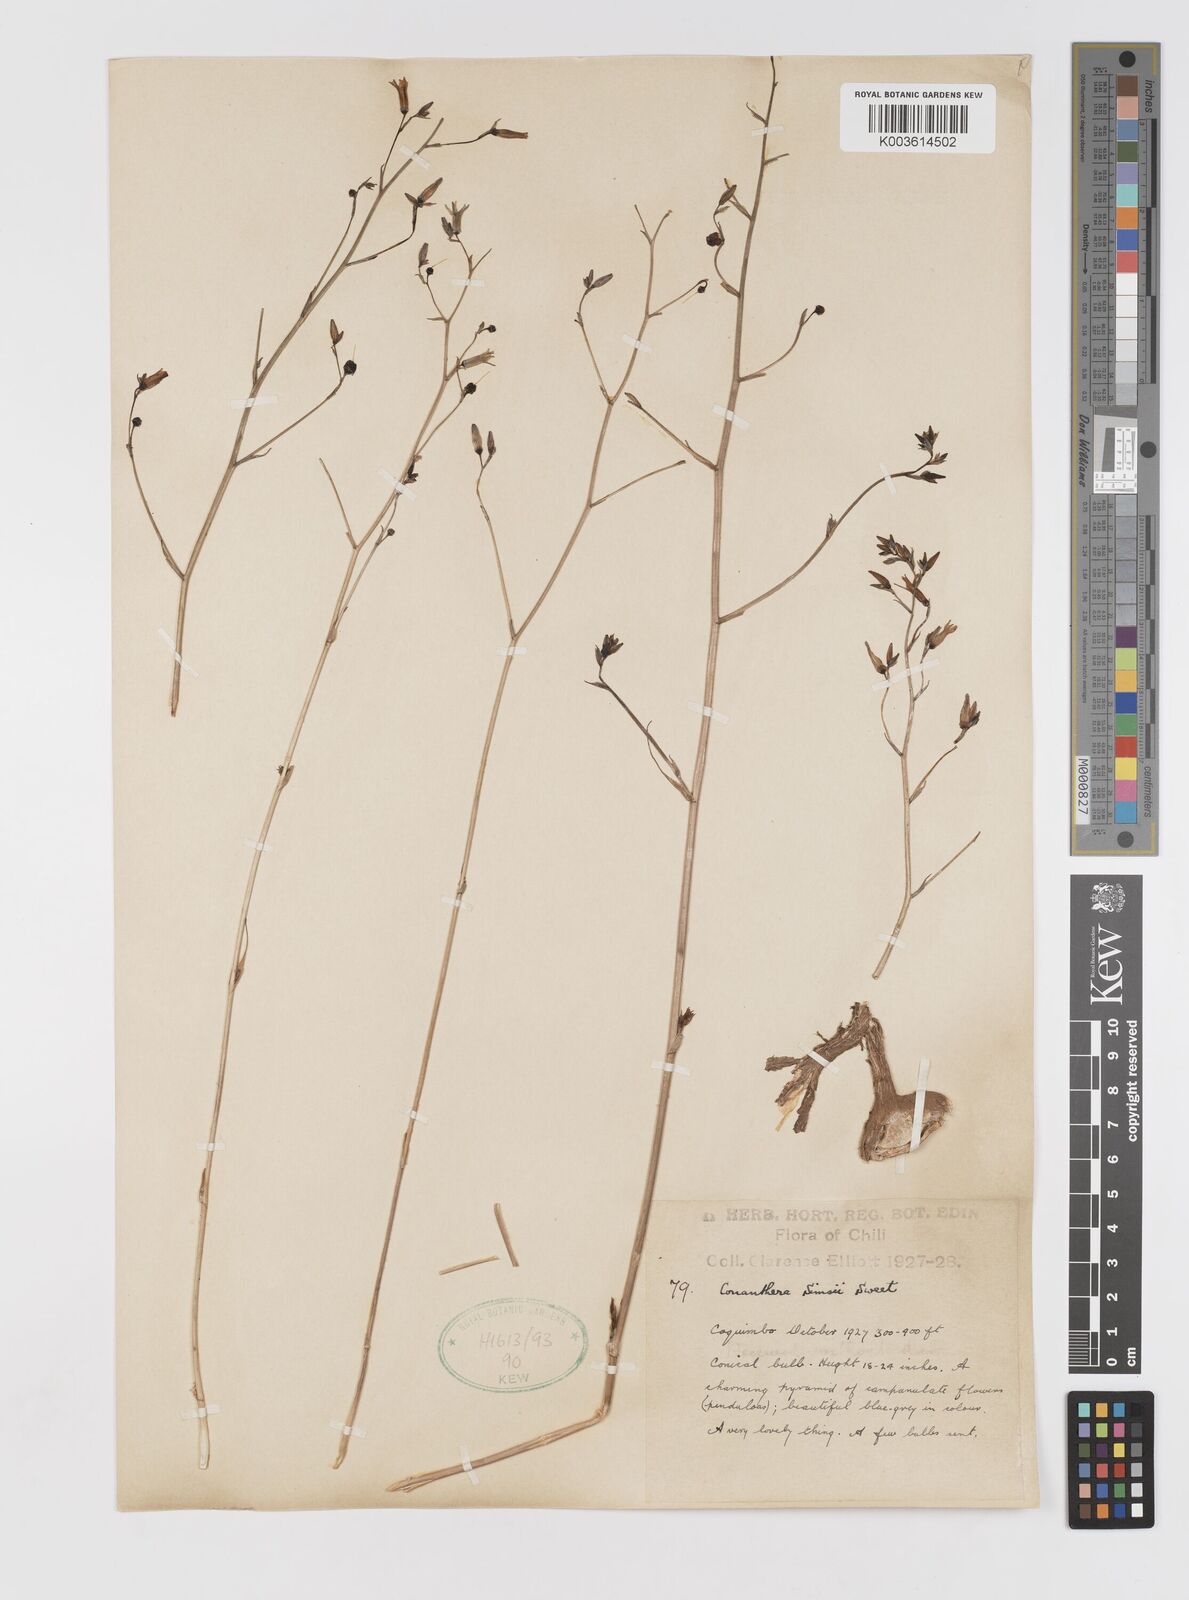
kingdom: Plantae
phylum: Tracheophyta
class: Liliopsida
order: Asparagales
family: Tecophilaeaceae
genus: Conanthera
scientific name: Conanthera campanulata
